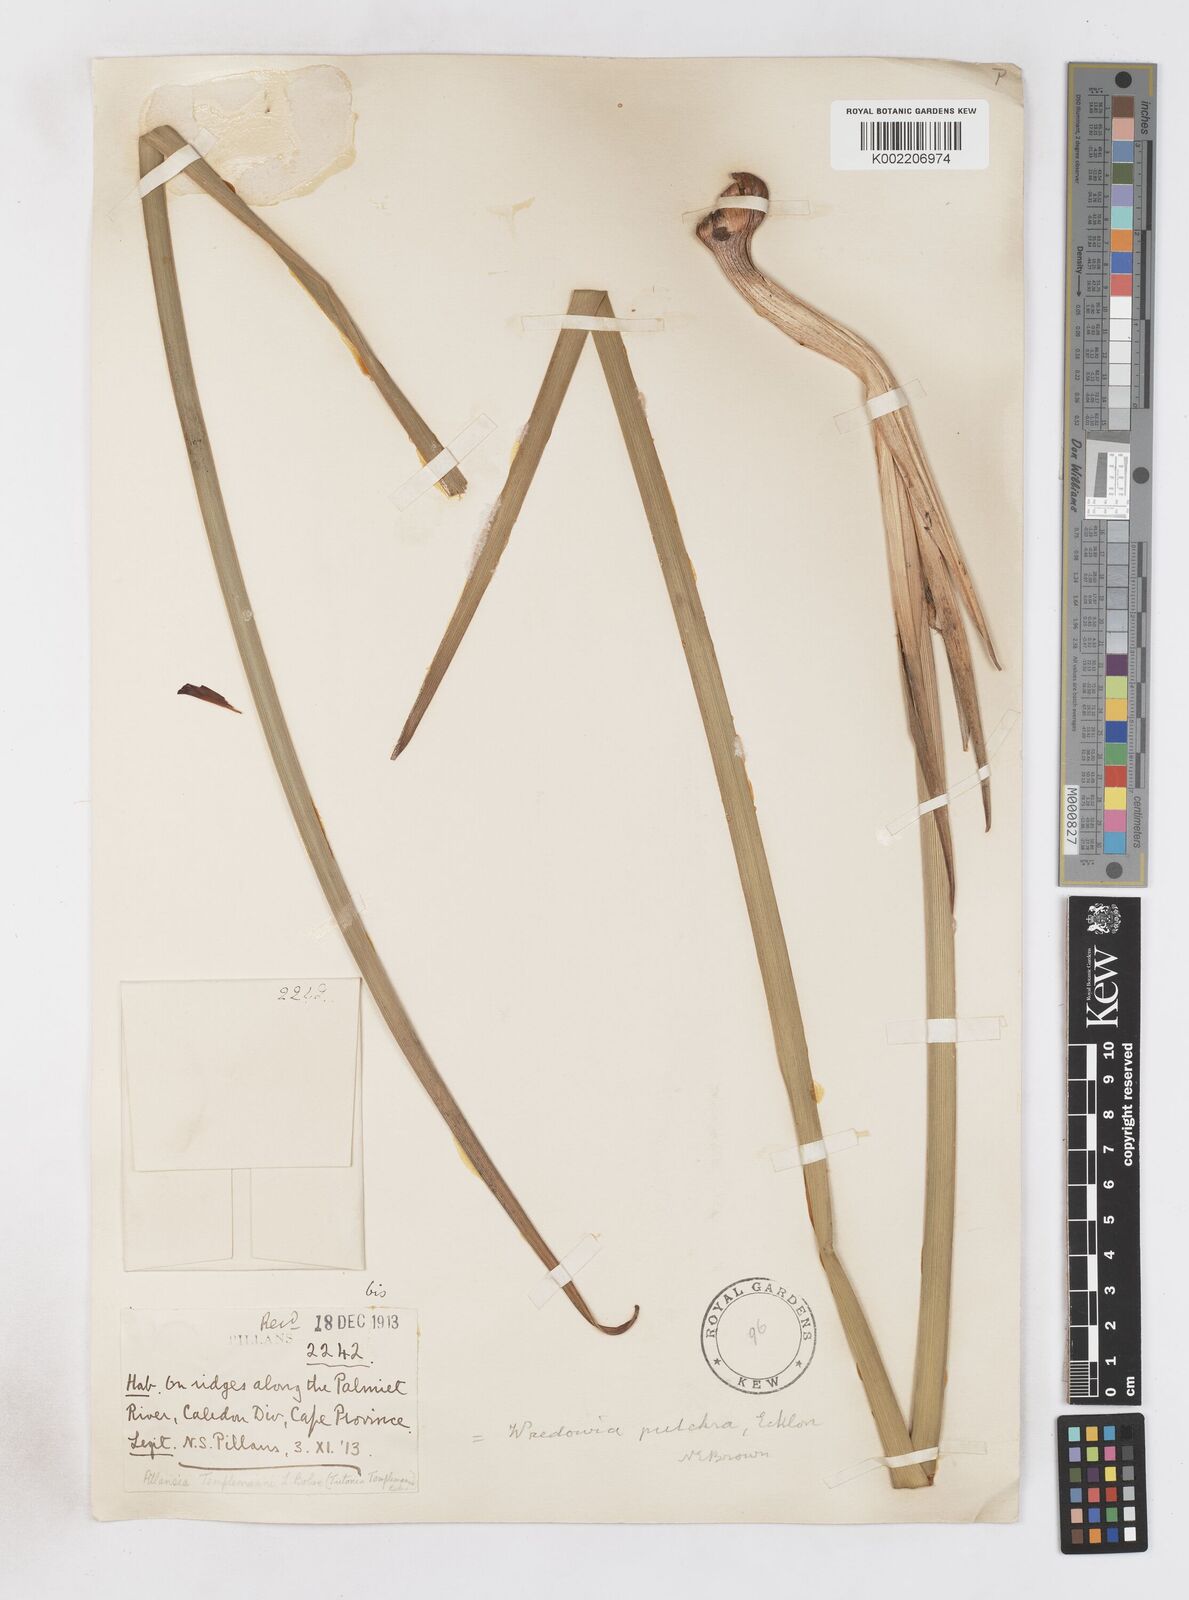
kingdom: Plantae
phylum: Tracheophyta
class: Liliopsida
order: Asparagales
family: Iridaceae
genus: Pillansia
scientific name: Pillansia templemannii
